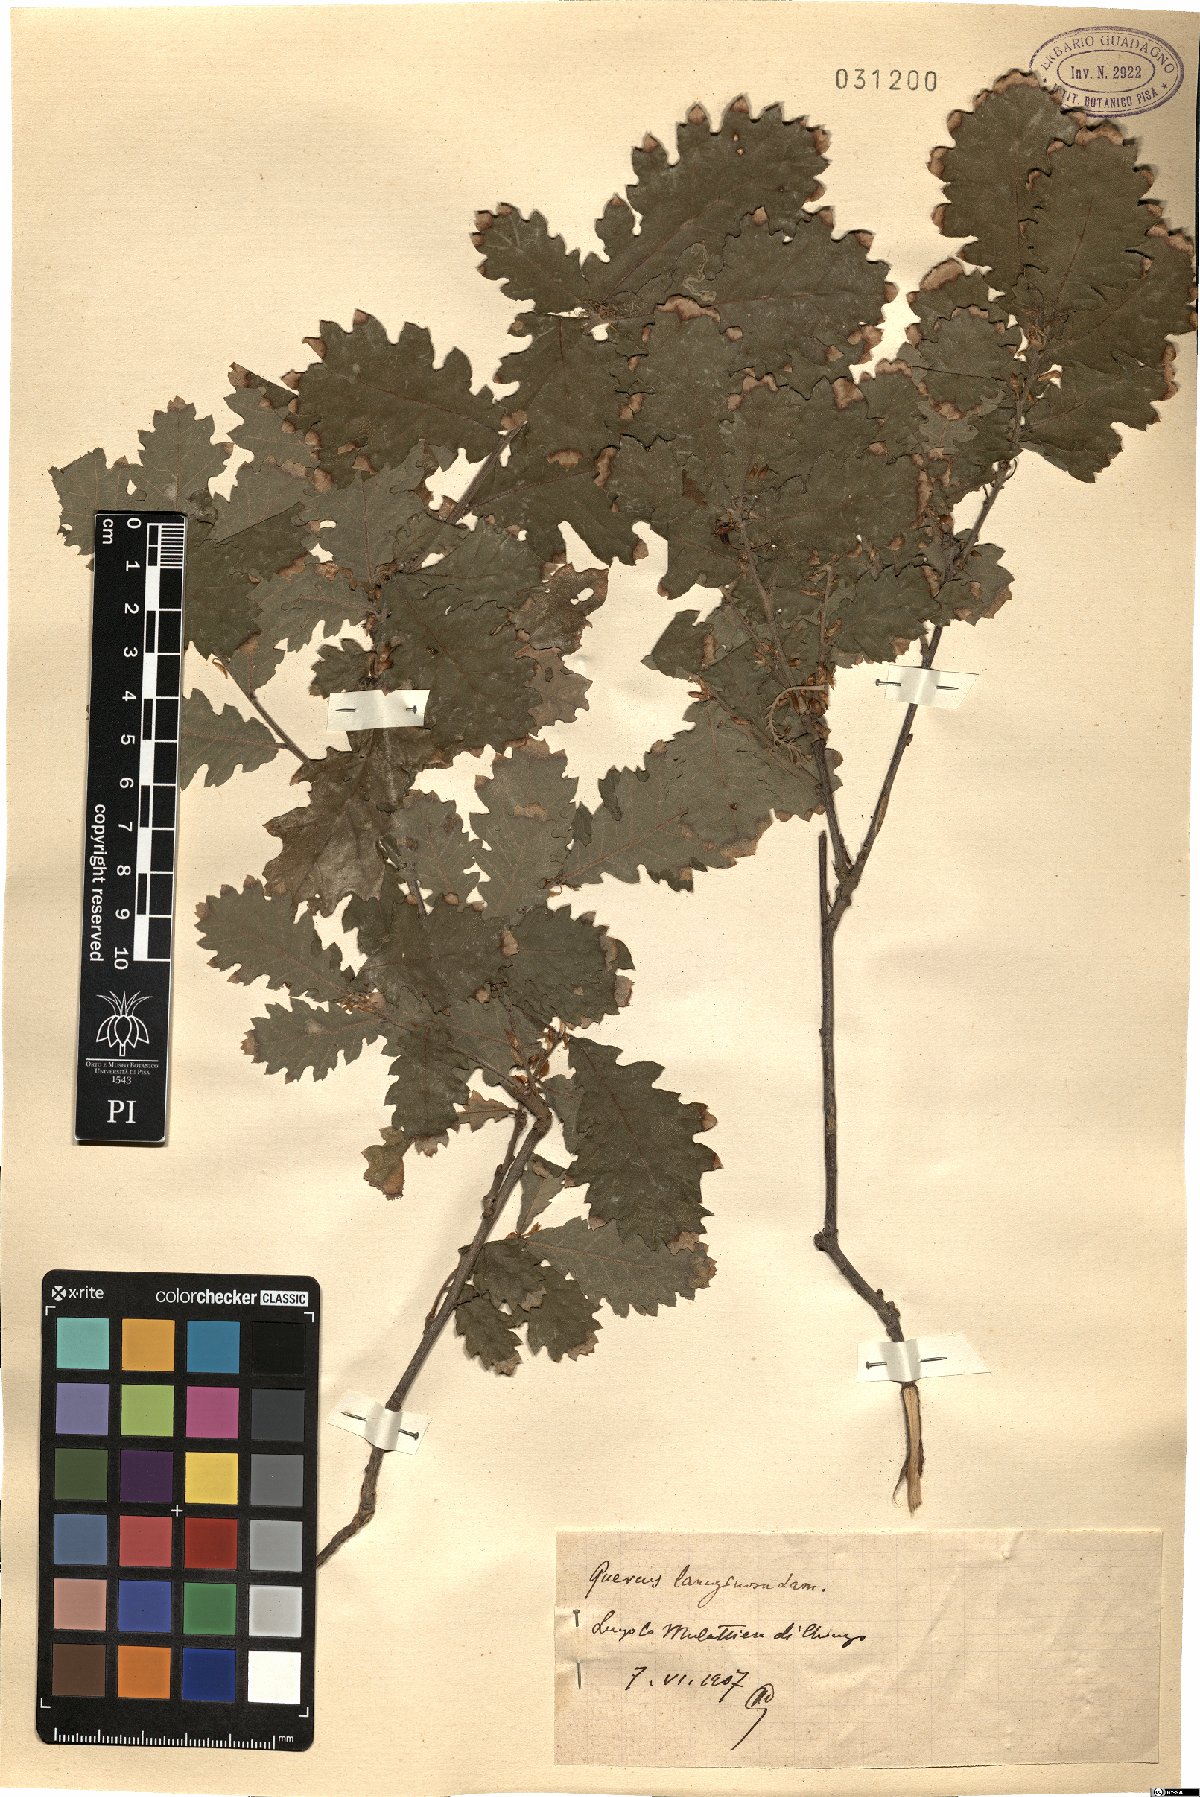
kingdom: Plantae
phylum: Tracheophyta
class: Magnoliopsida
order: Fagales
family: Fagaceae
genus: Quercus
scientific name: Quercus cerris
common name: Turkey oak
